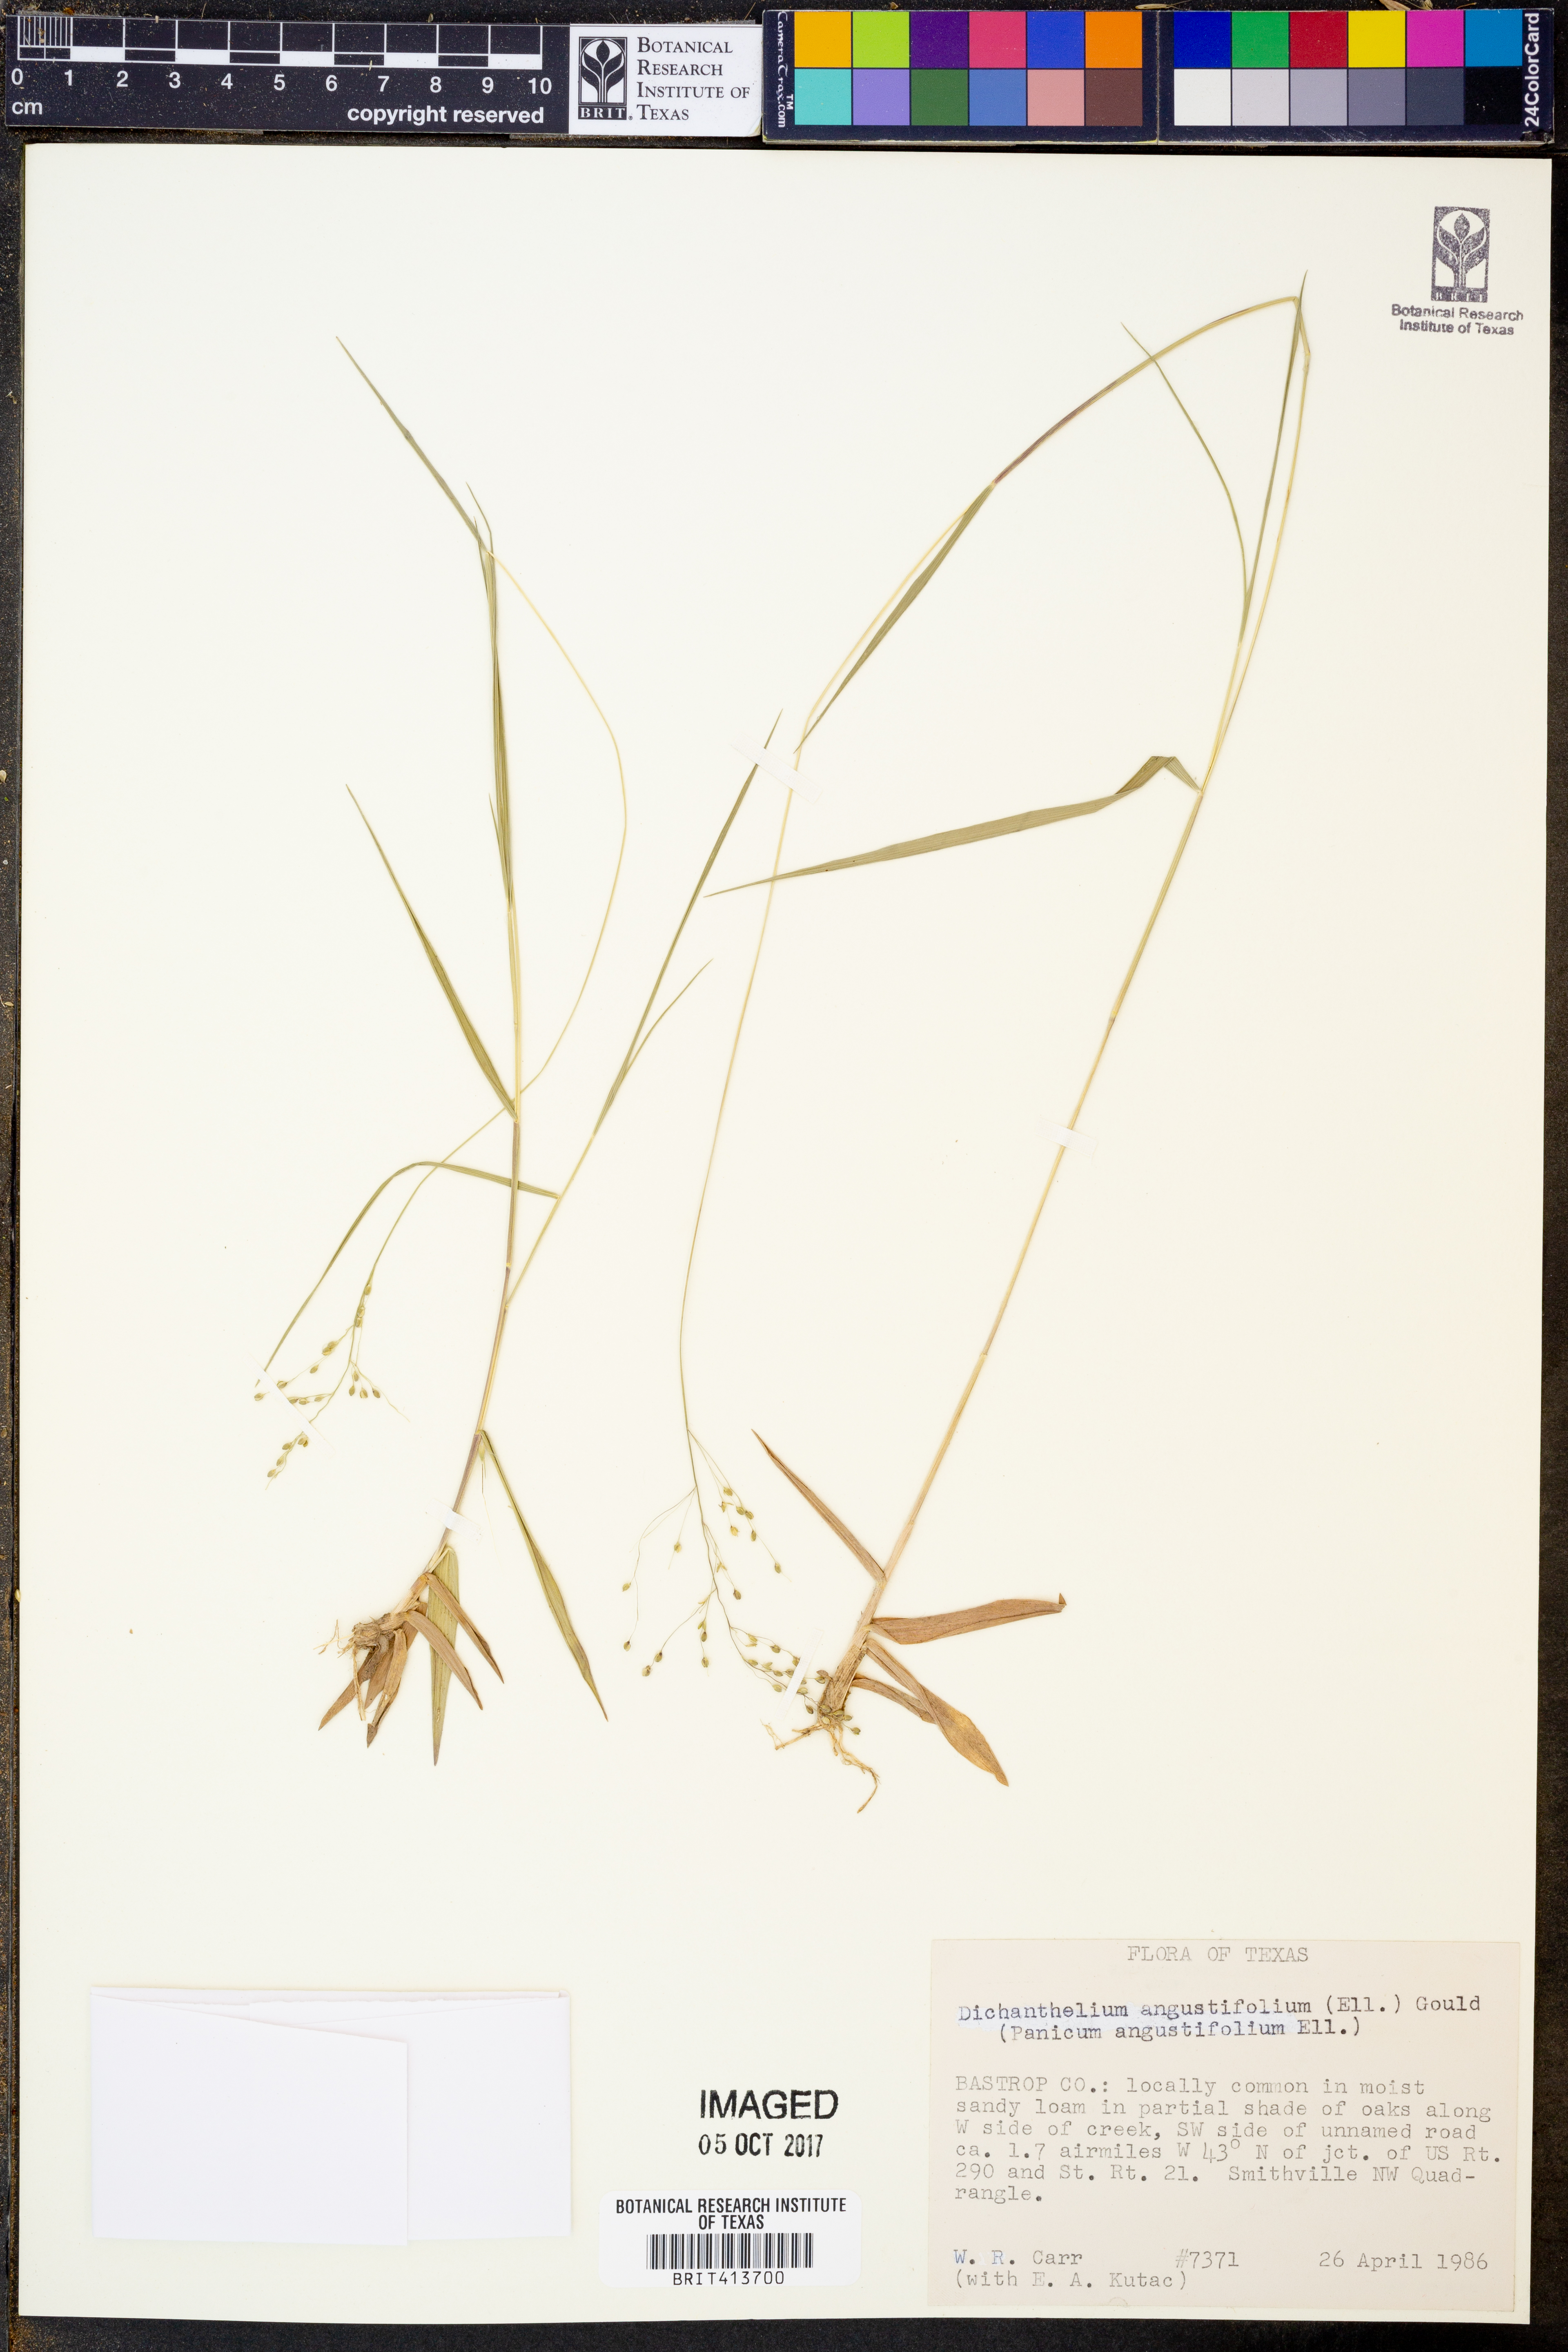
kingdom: Plantae
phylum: Tracheophyta
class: Liliopsida
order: Poales
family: Poaceae
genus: Dichanthelium
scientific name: Dichanthelium angustifolium
